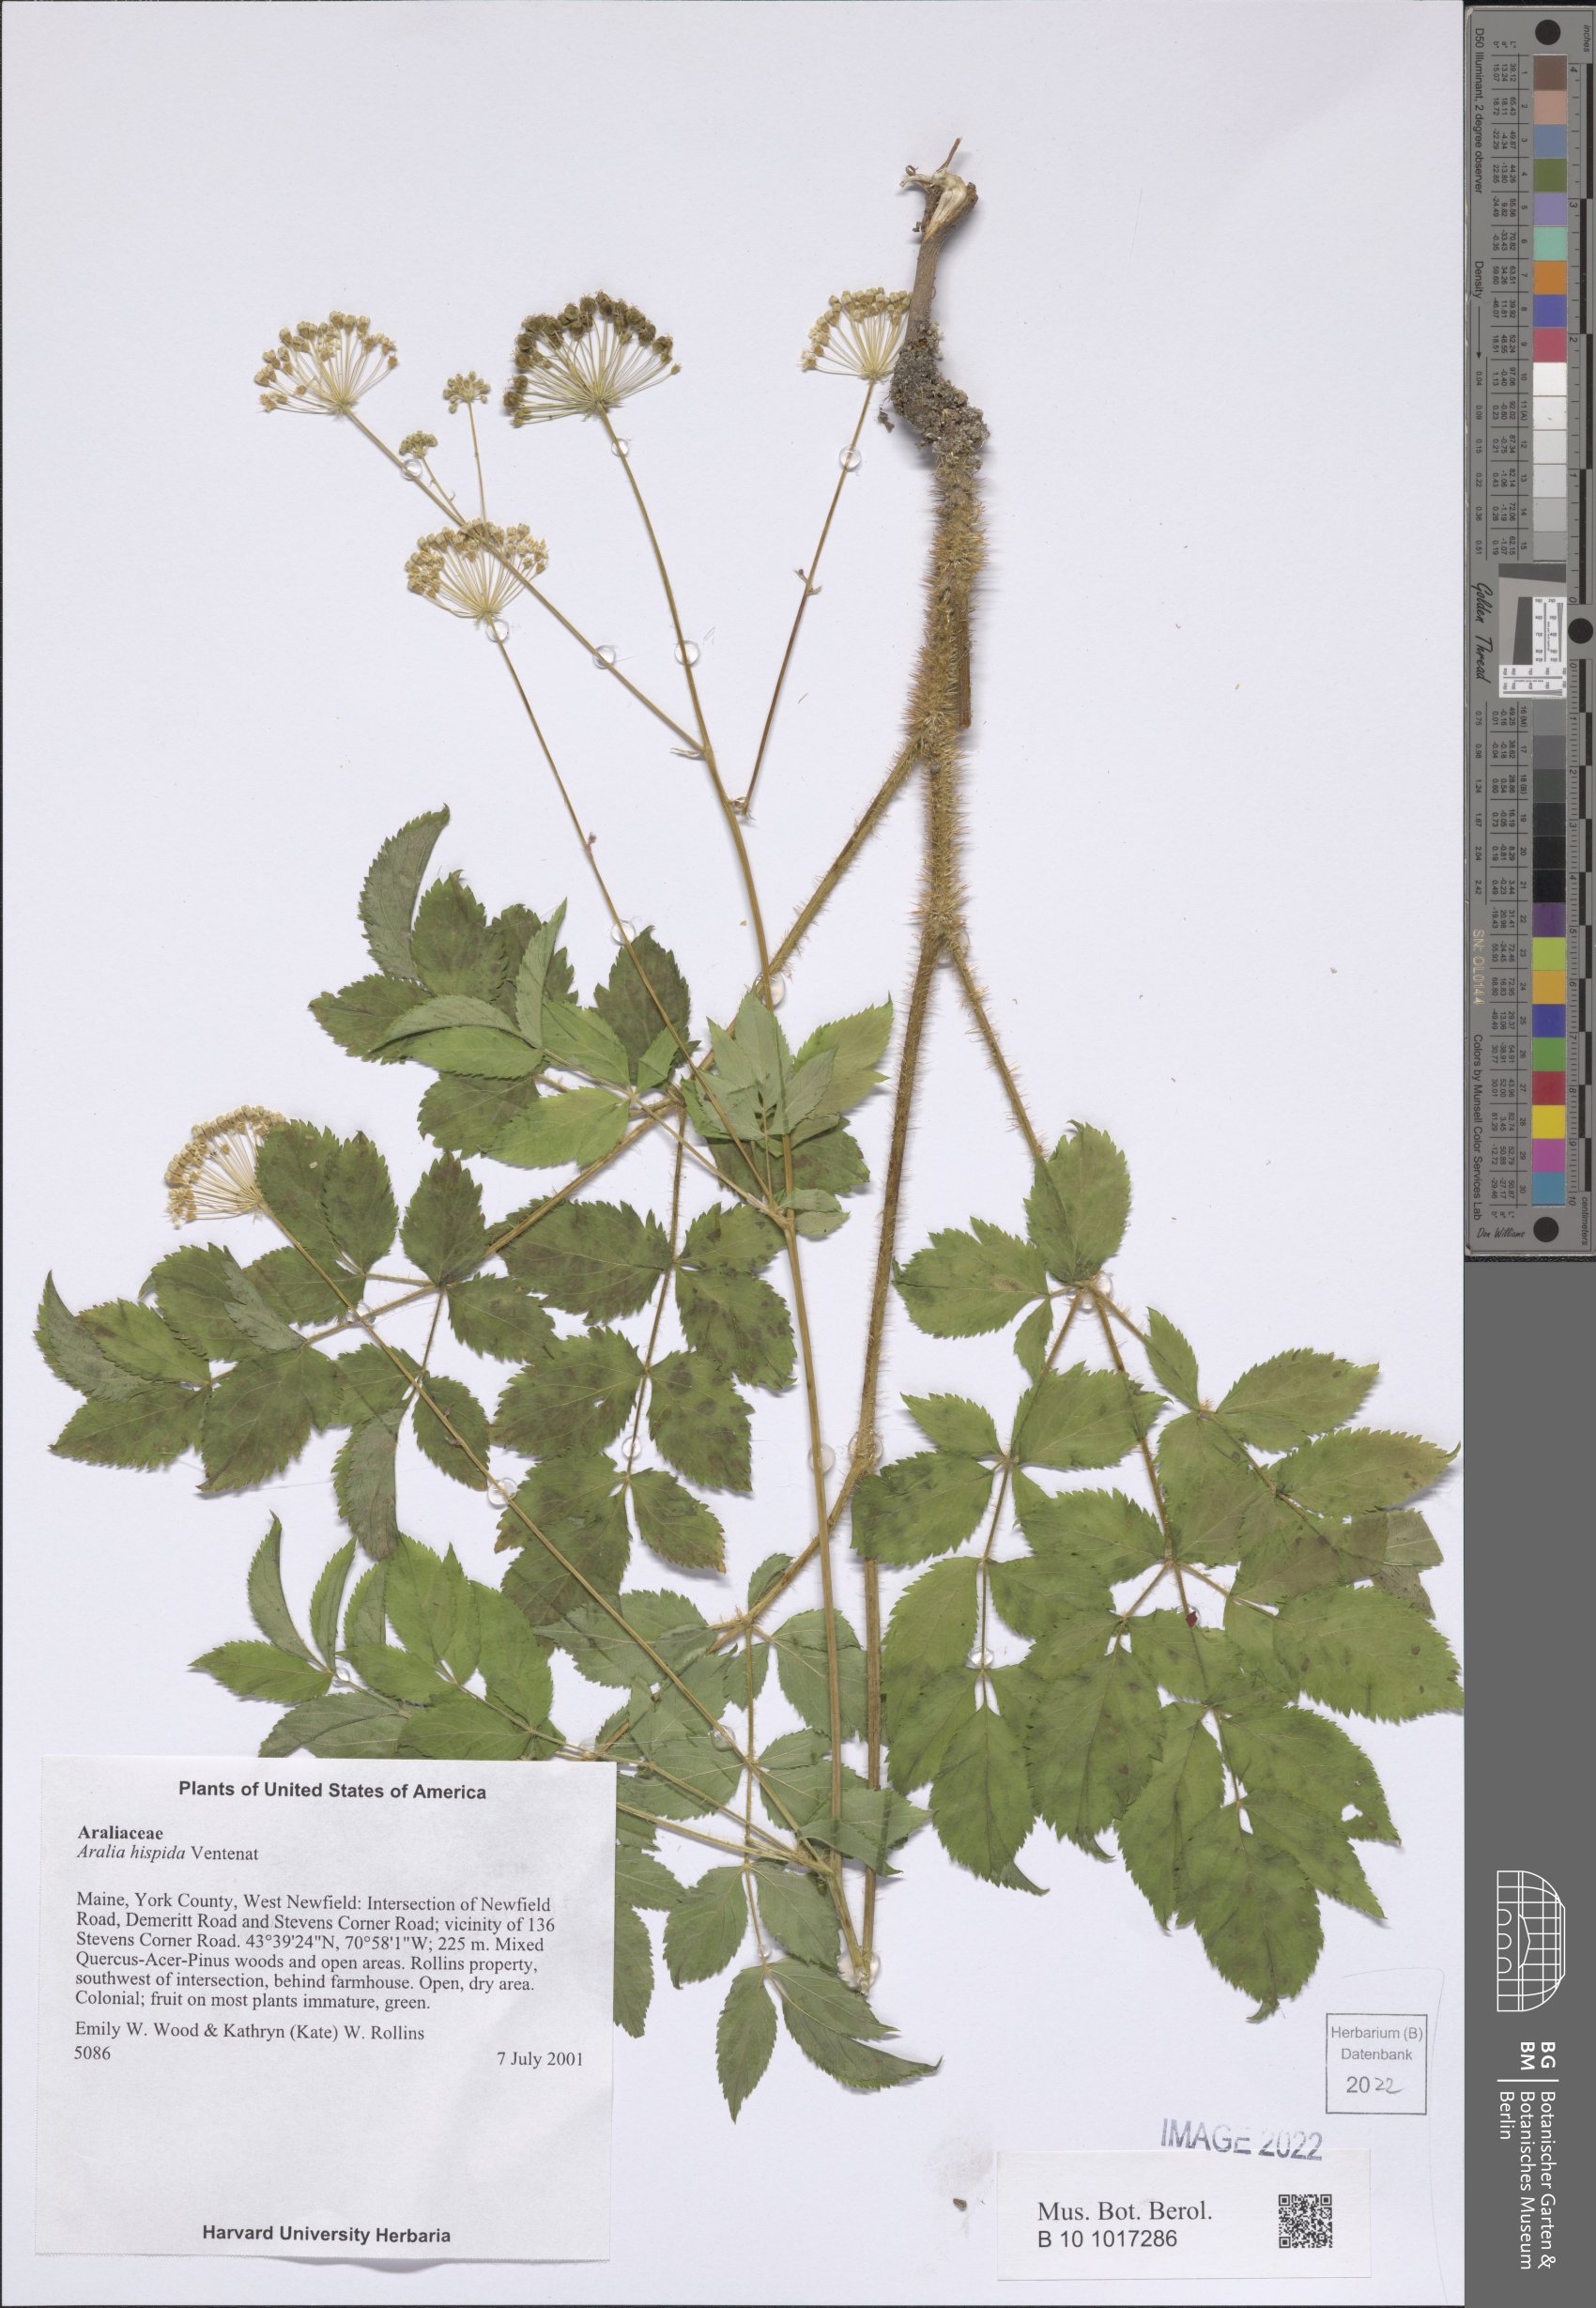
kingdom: Plantae
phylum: Tracheophyta
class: Magnoliopsida
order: Apiales
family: Araliaceae
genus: Aralia
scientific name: Aralia hispida
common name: Bristly sarsaparilla
